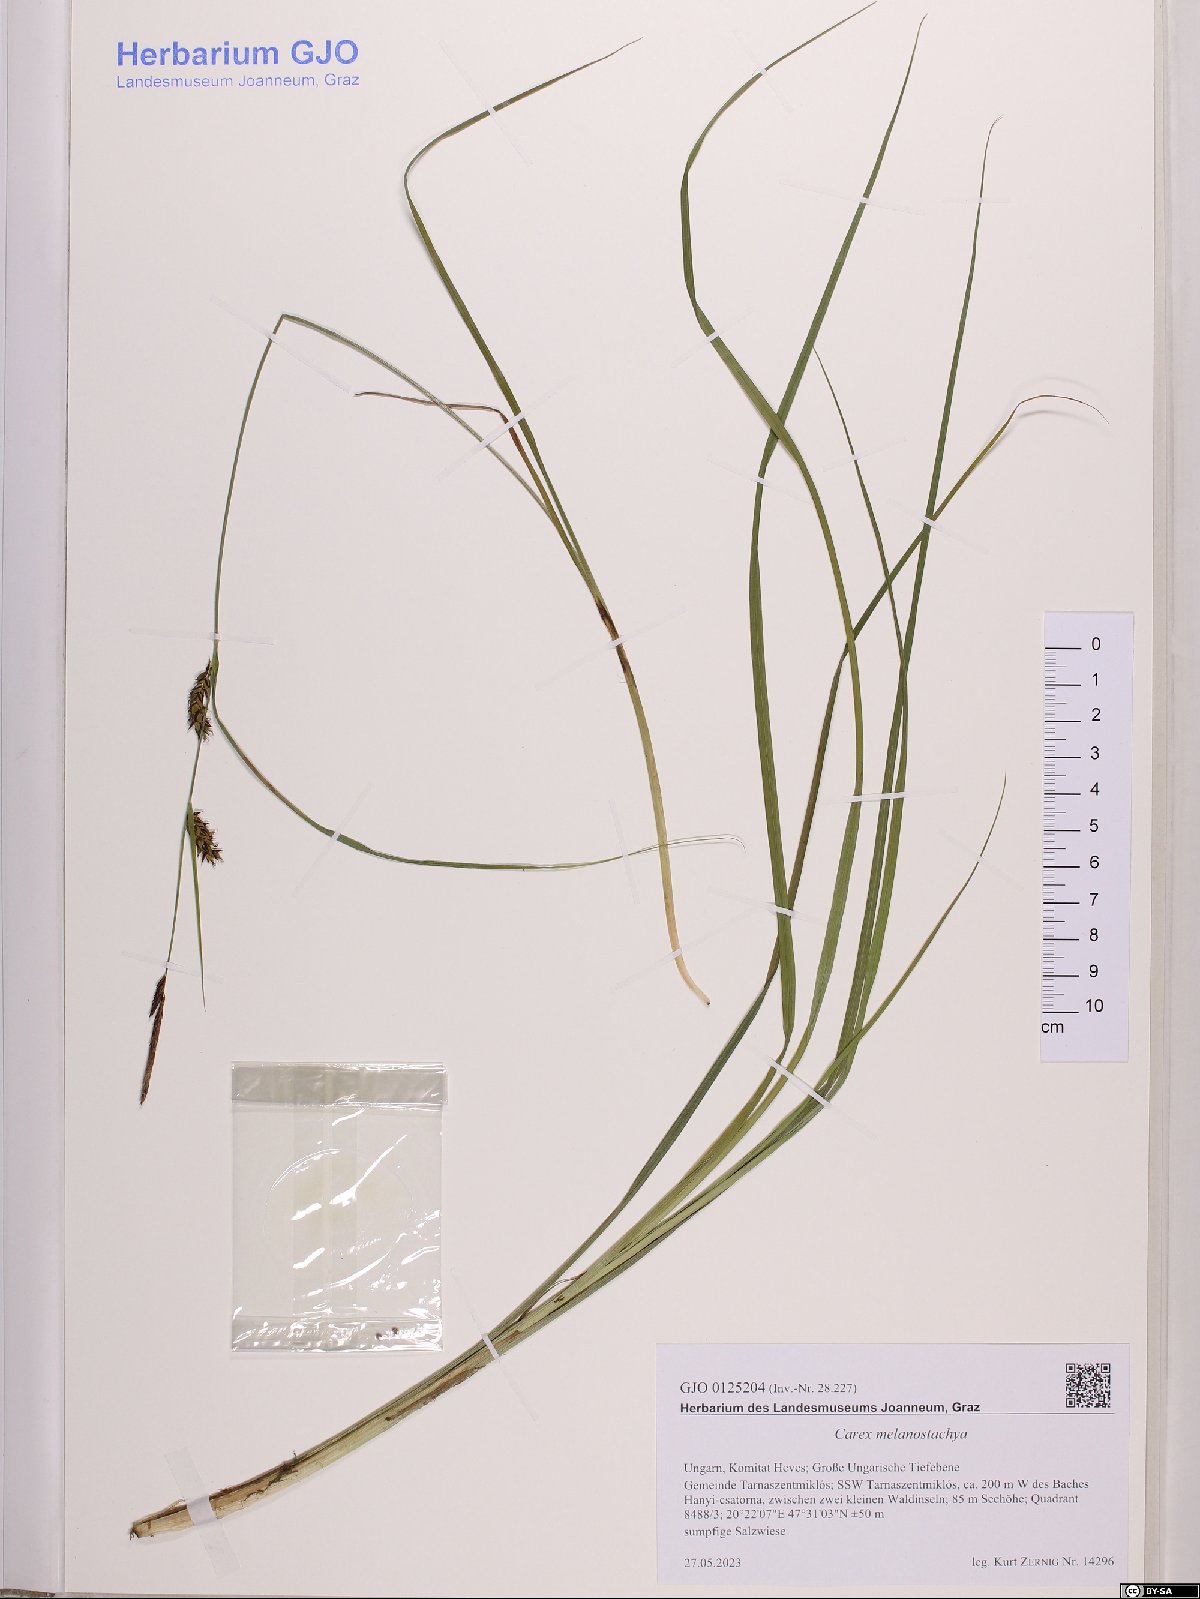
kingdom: Plantae
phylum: Tracheophyta
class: Liliopsida
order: Poales
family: Cyperaceae
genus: Carex
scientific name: Carex melanostachya
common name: Black-spiked sedge
